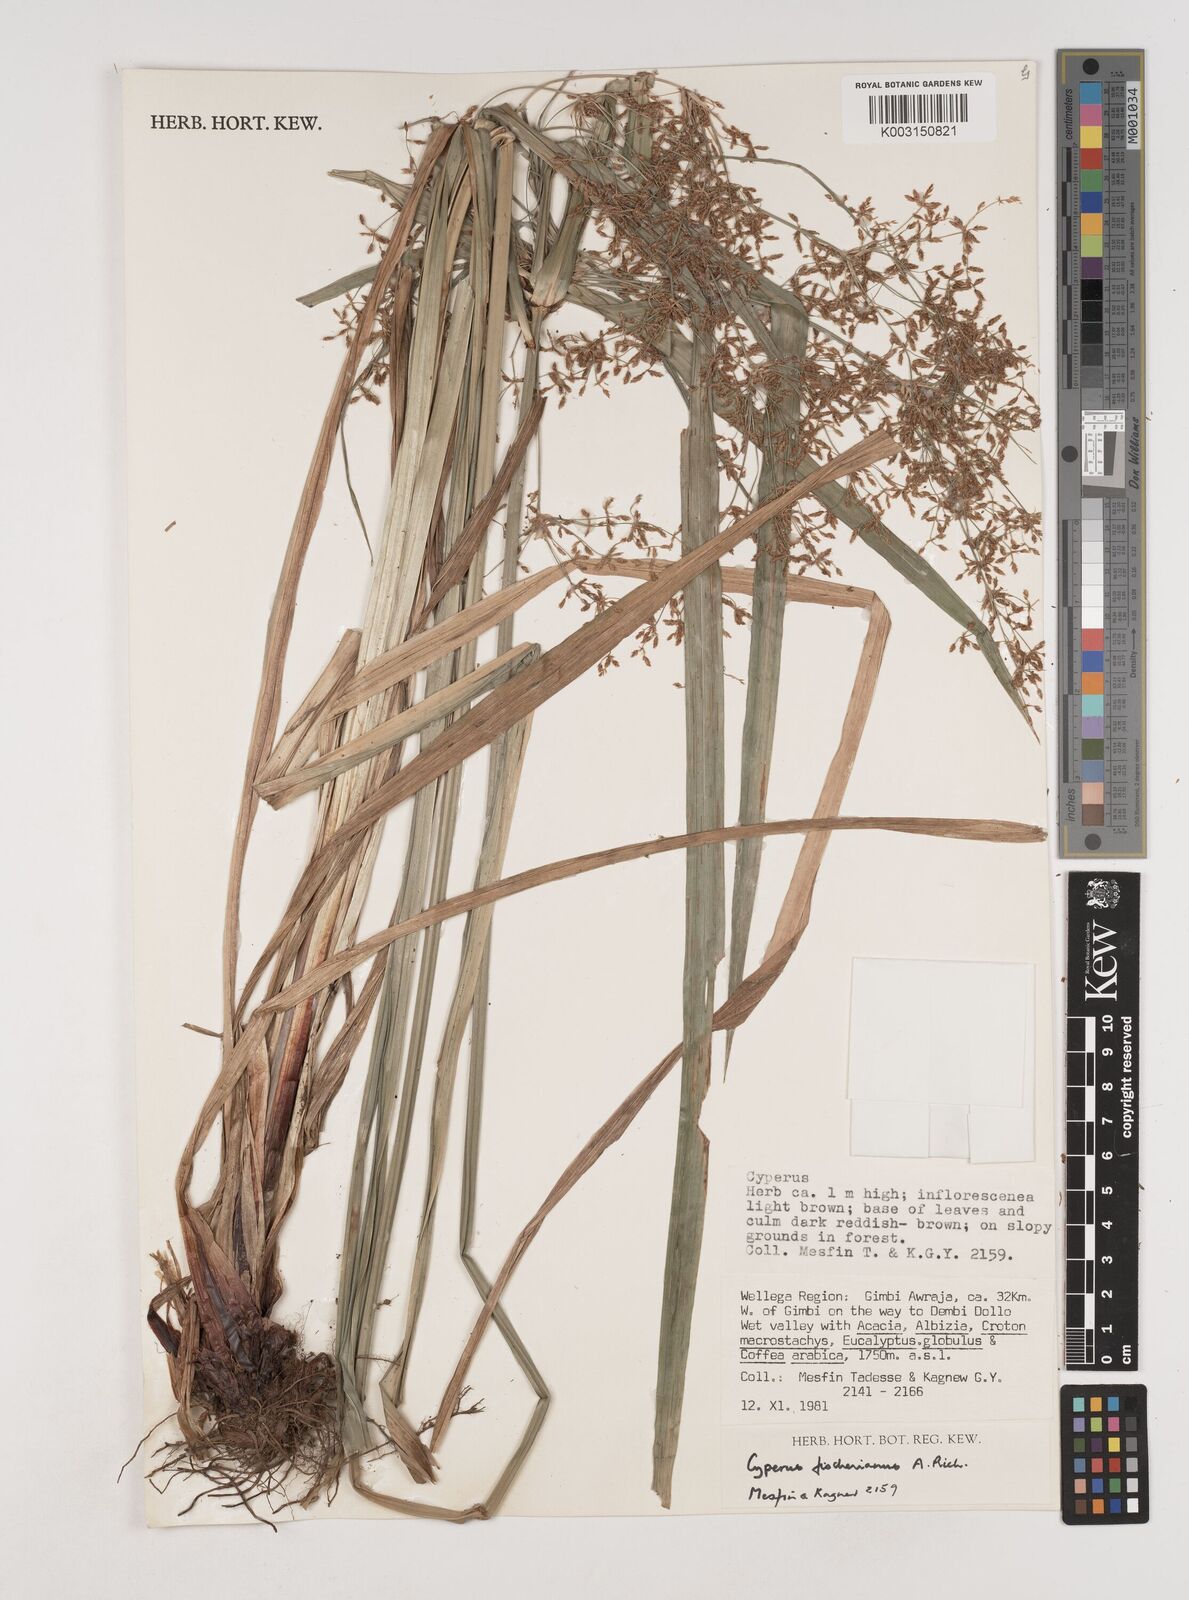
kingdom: Plantae
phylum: Tracheophyta
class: Liliopsida
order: Poales
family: Cyperaceae
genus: Cyperus
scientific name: Cyperus fischerianus
